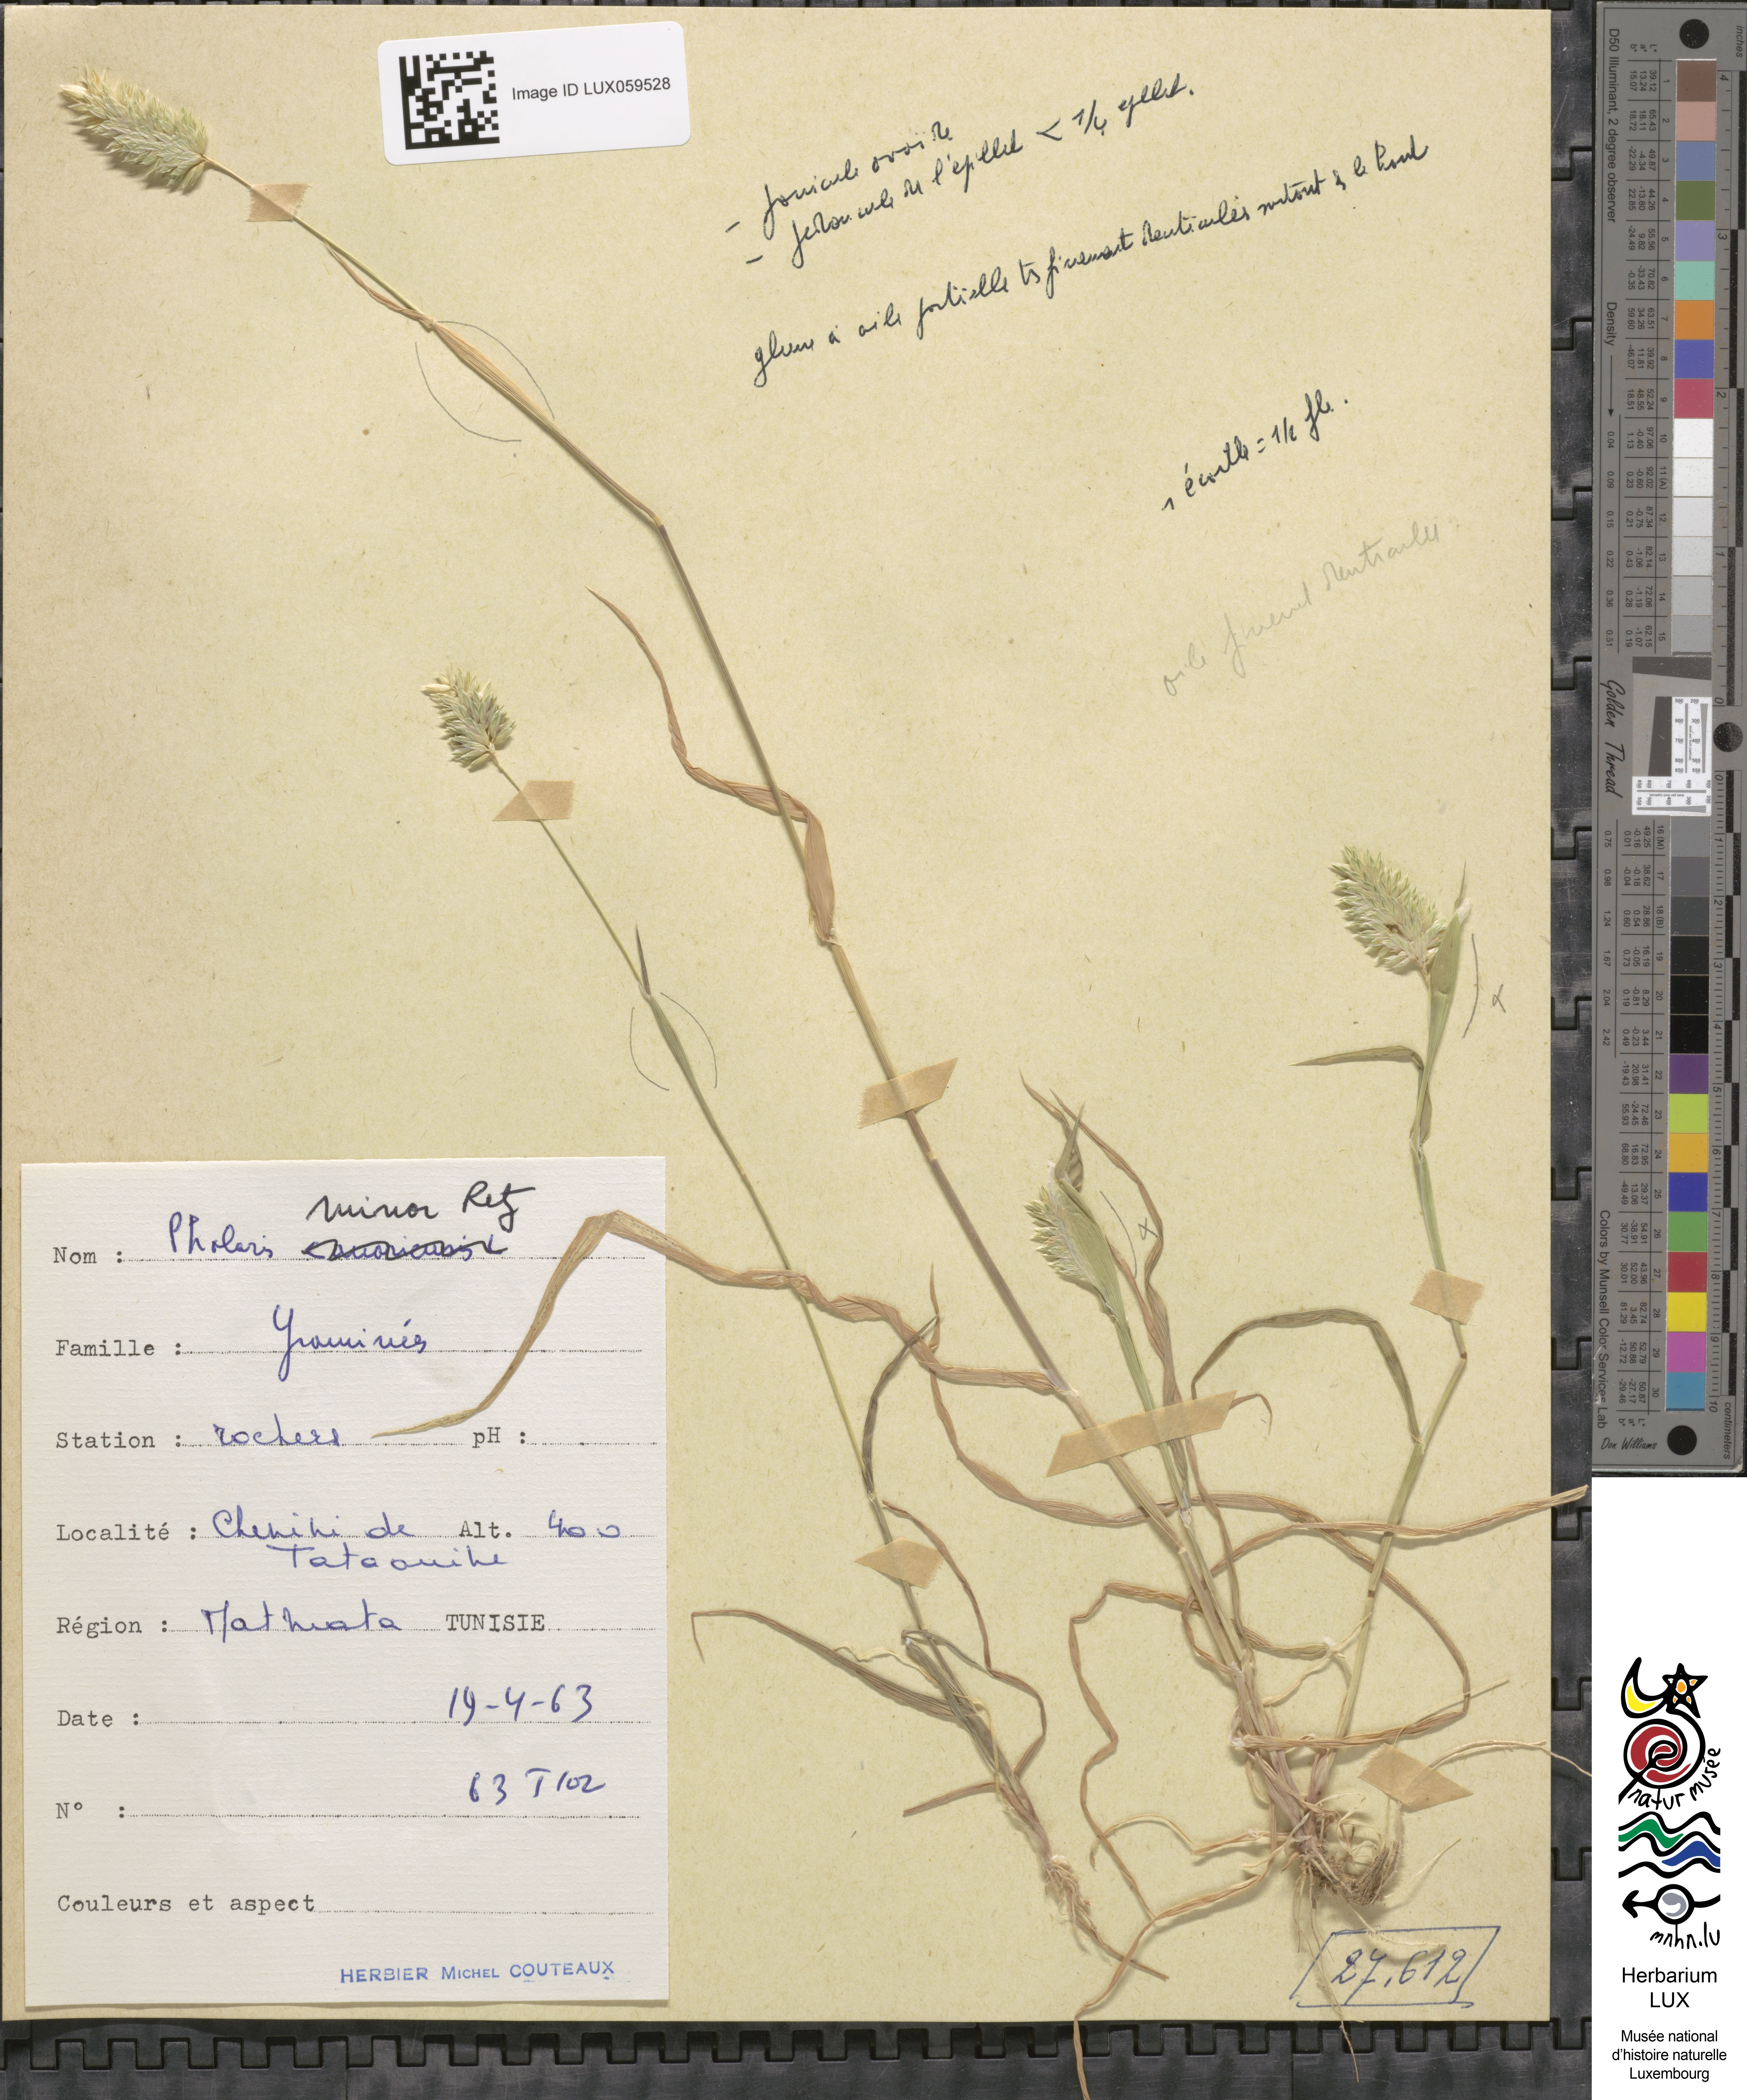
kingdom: Plantae
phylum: Tracheophyta
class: Liliopsida
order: Poales
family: Poaceae
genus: Phalaris
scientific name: Phalaris minor
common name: Littleseed canarygrass
